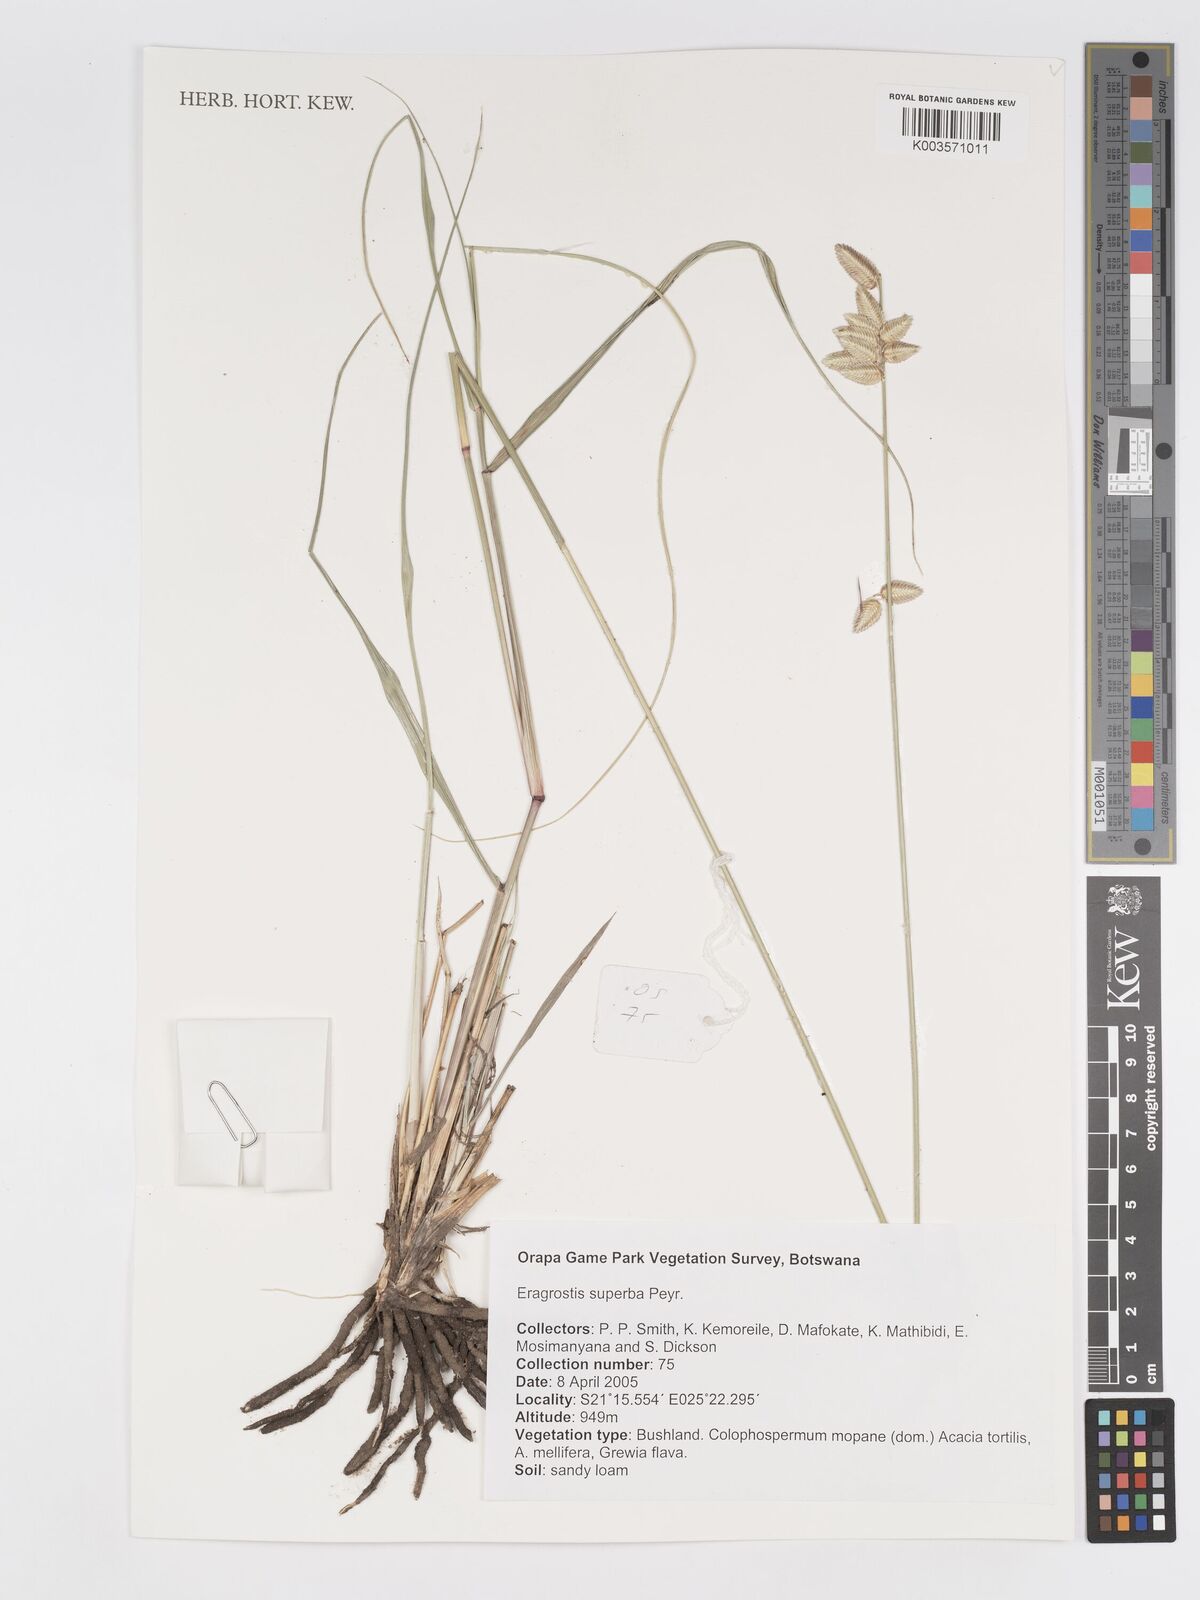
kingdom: Plantae
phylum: Tracheophyta
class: Liliopsida
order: Poales
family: Poaceae
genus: Eragrostis
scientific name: Eragrostis superba
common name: Wilman lovegrass
